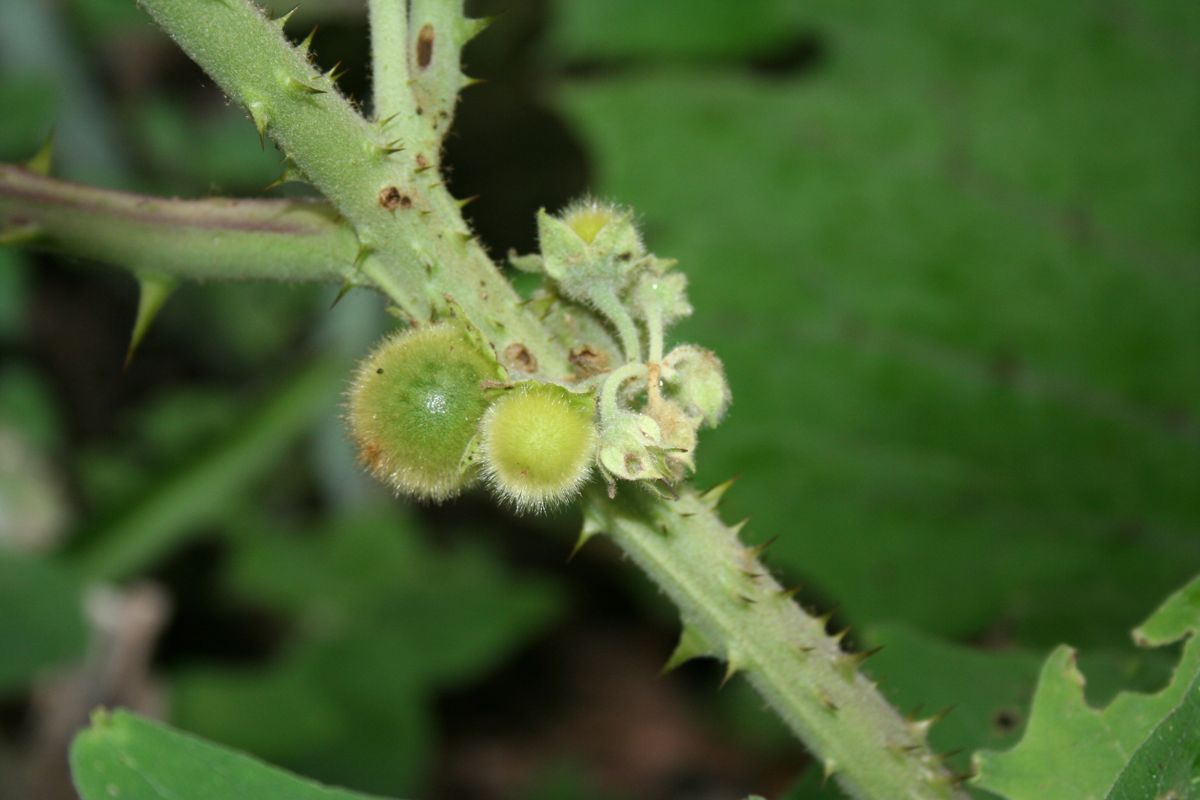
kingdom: Plantae
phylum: Tracheophyta
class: Magnoliopsida
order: Solanales
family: Solanaceae
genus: Solanum
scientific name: Solanum torvum
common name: Turkey berry
